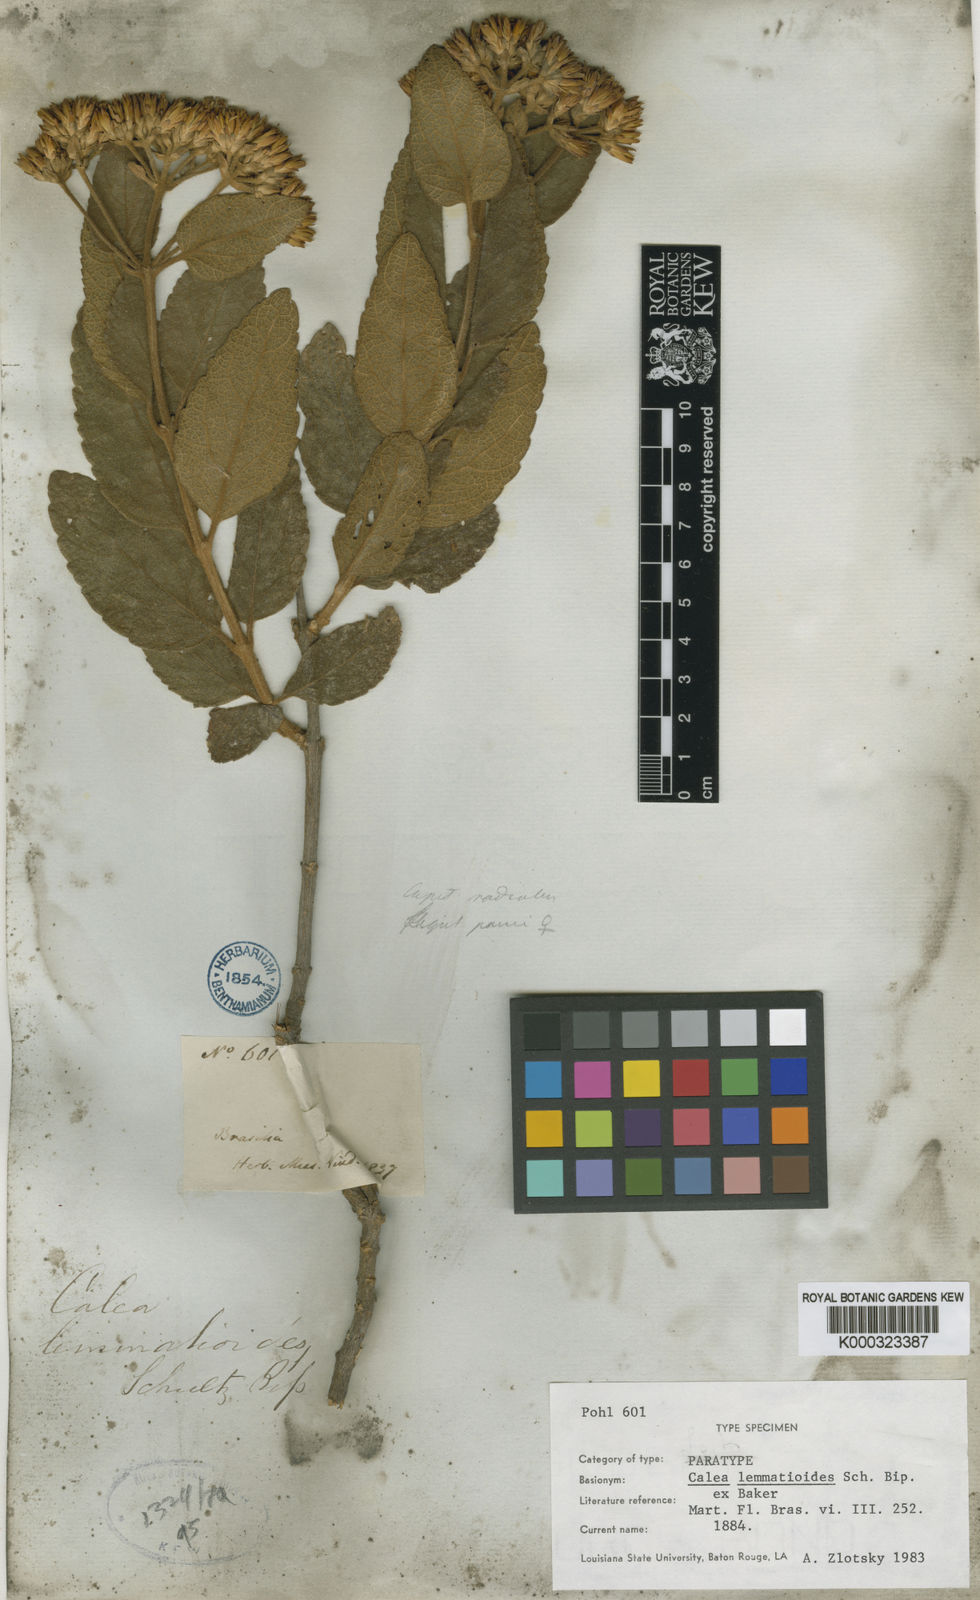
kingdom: Plantae
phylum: Tracheophyta
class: Magnoliopsida
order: Asterales
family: Asteraceae
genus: Calea
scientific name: Calea lemmatioides
